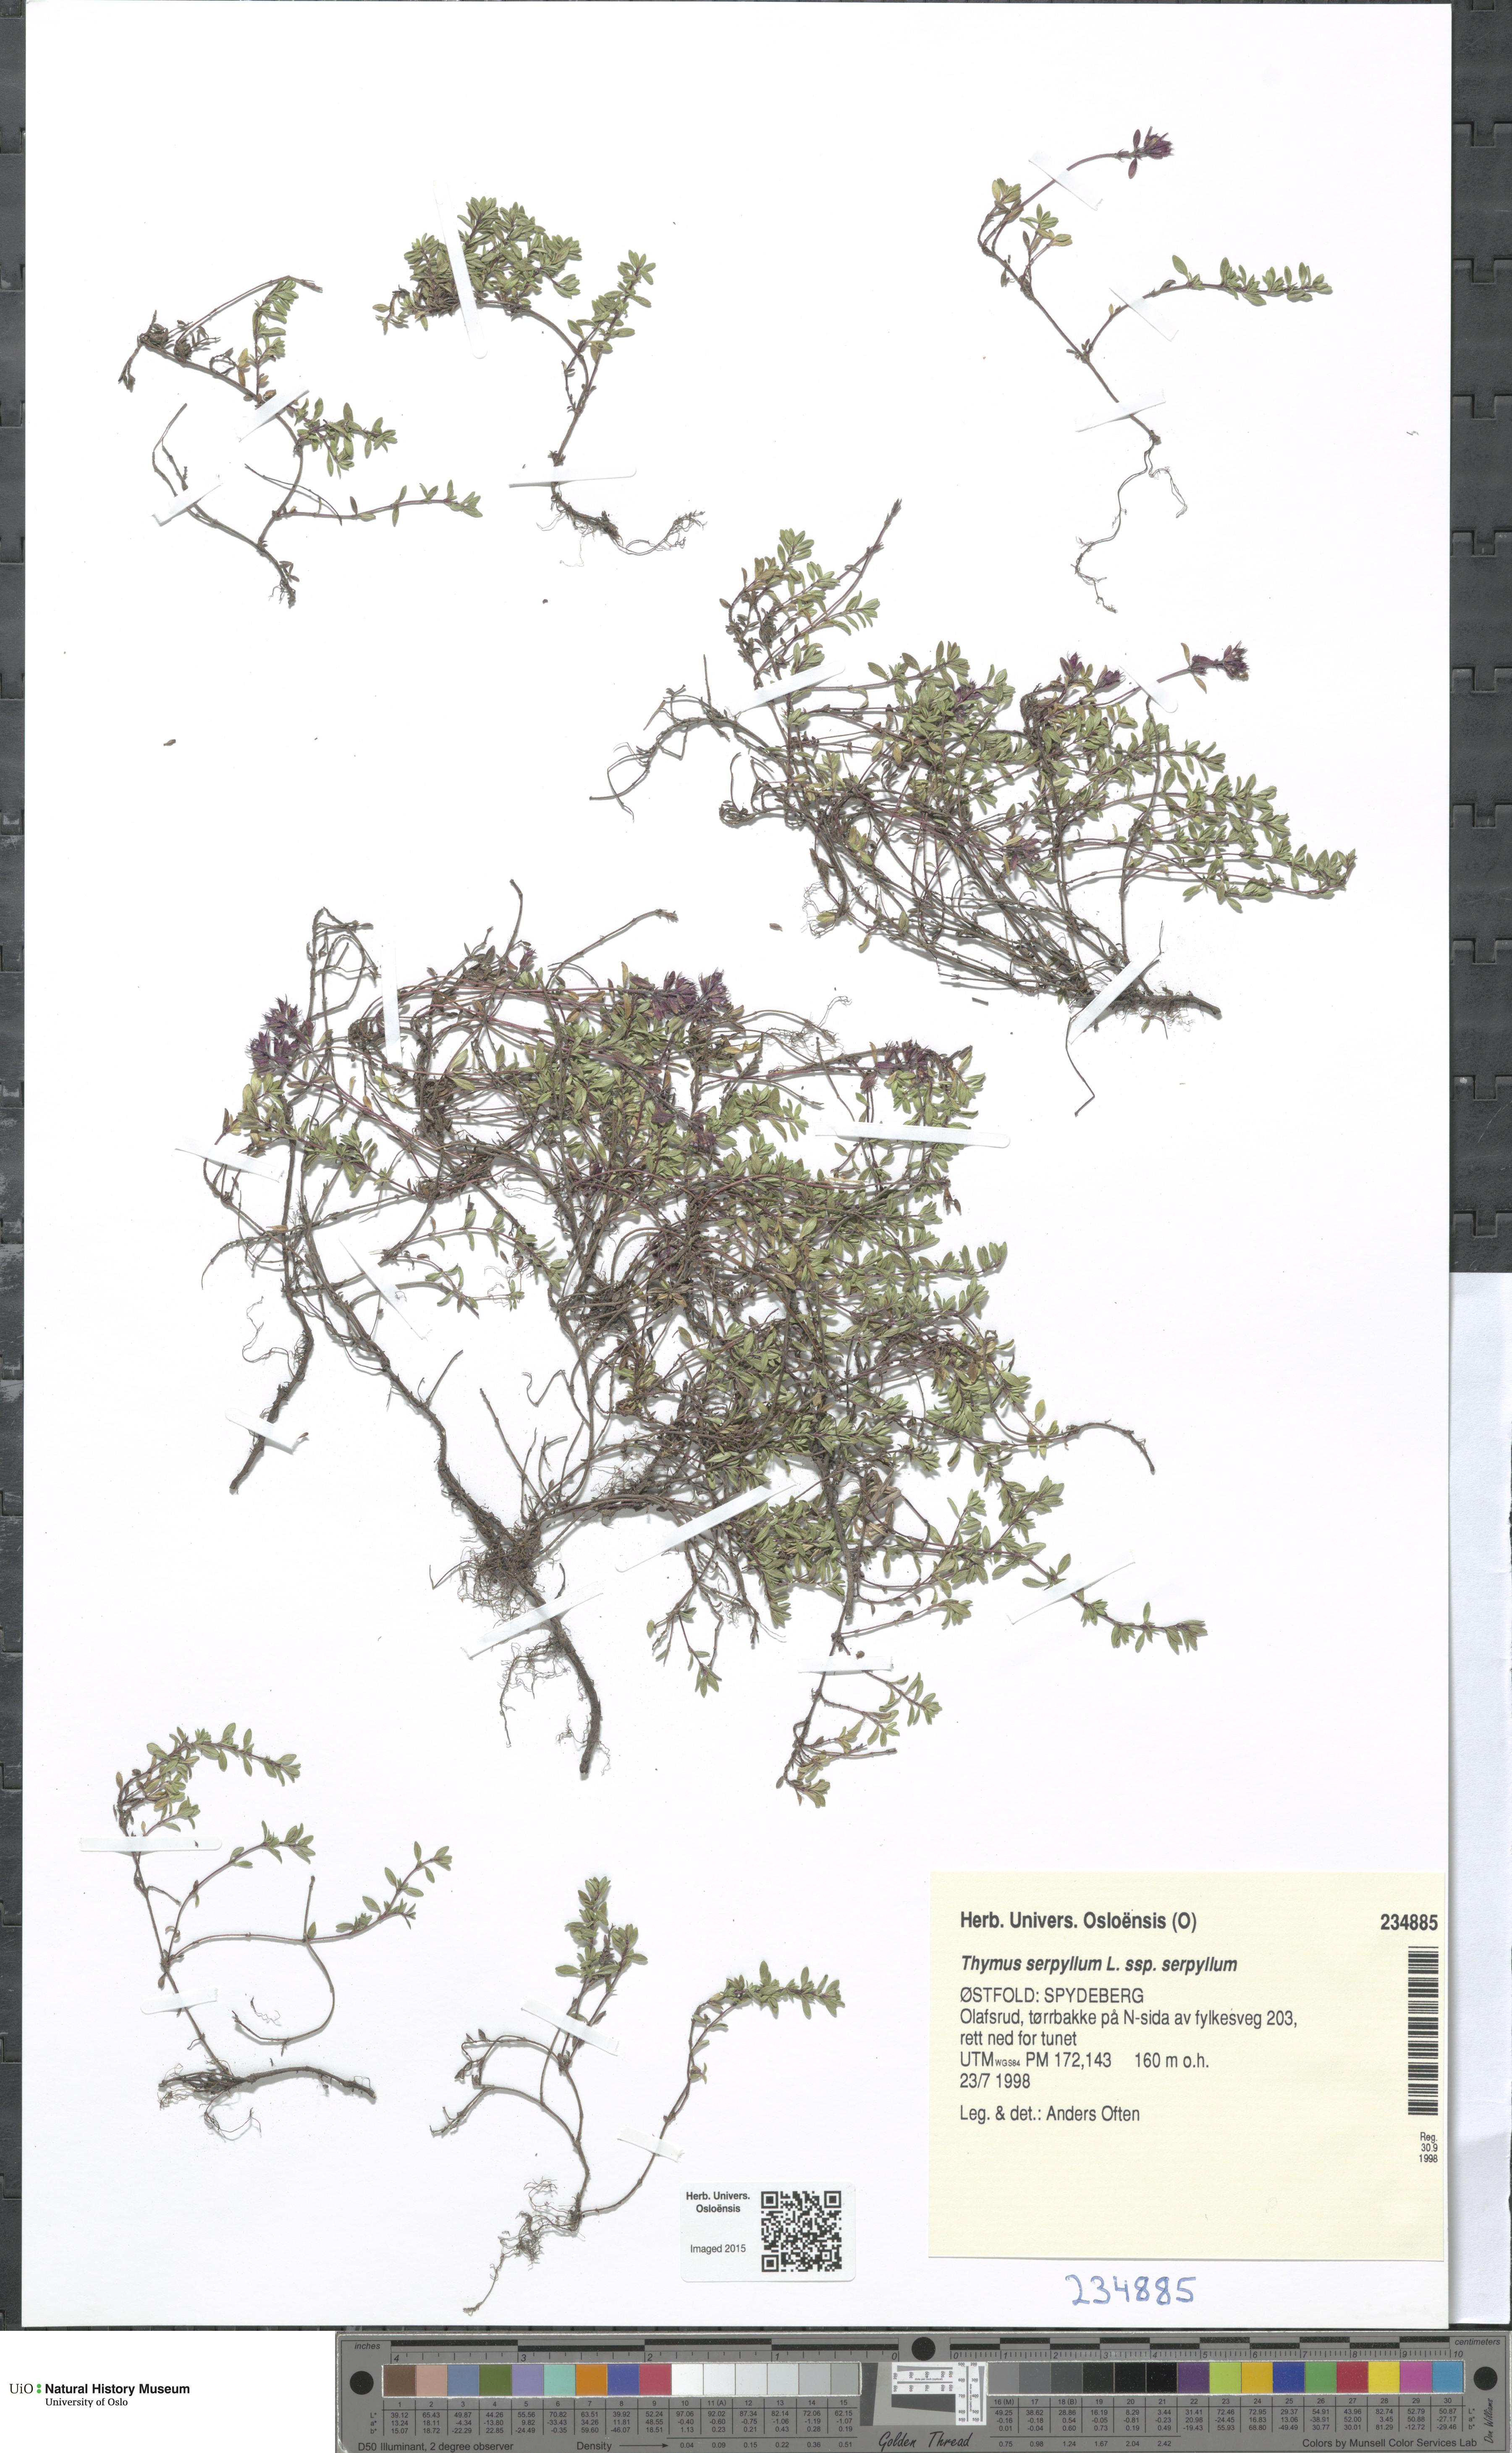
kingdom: Plantae
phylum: Tracheophyta
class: Magnoliopsida
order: Lamiales
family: Lamiaceae
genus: Thymus
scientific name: Thymus serpyllum
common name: Breckland thyme
